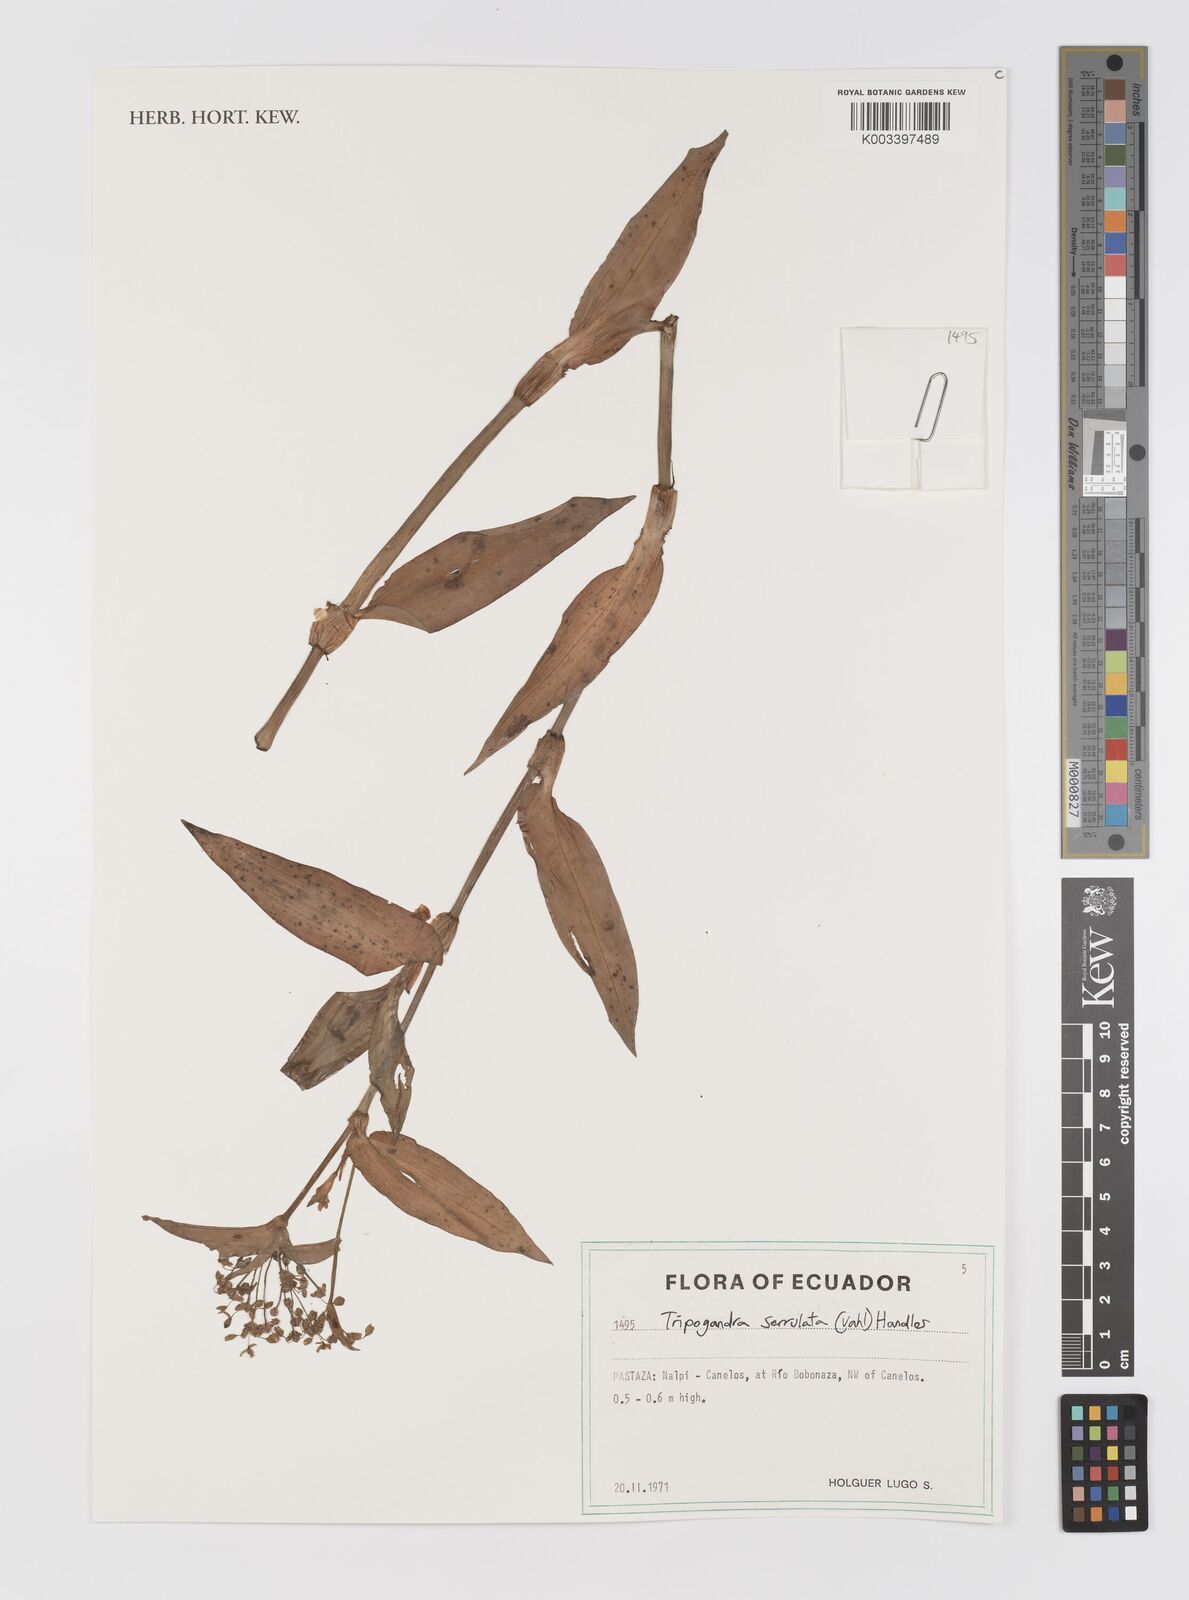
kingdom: Plantae
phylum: Tracheophyta
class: Liliopsida
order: Commelinales
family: Commelinaceae
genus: Callisia
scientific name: Callisia serrulata
